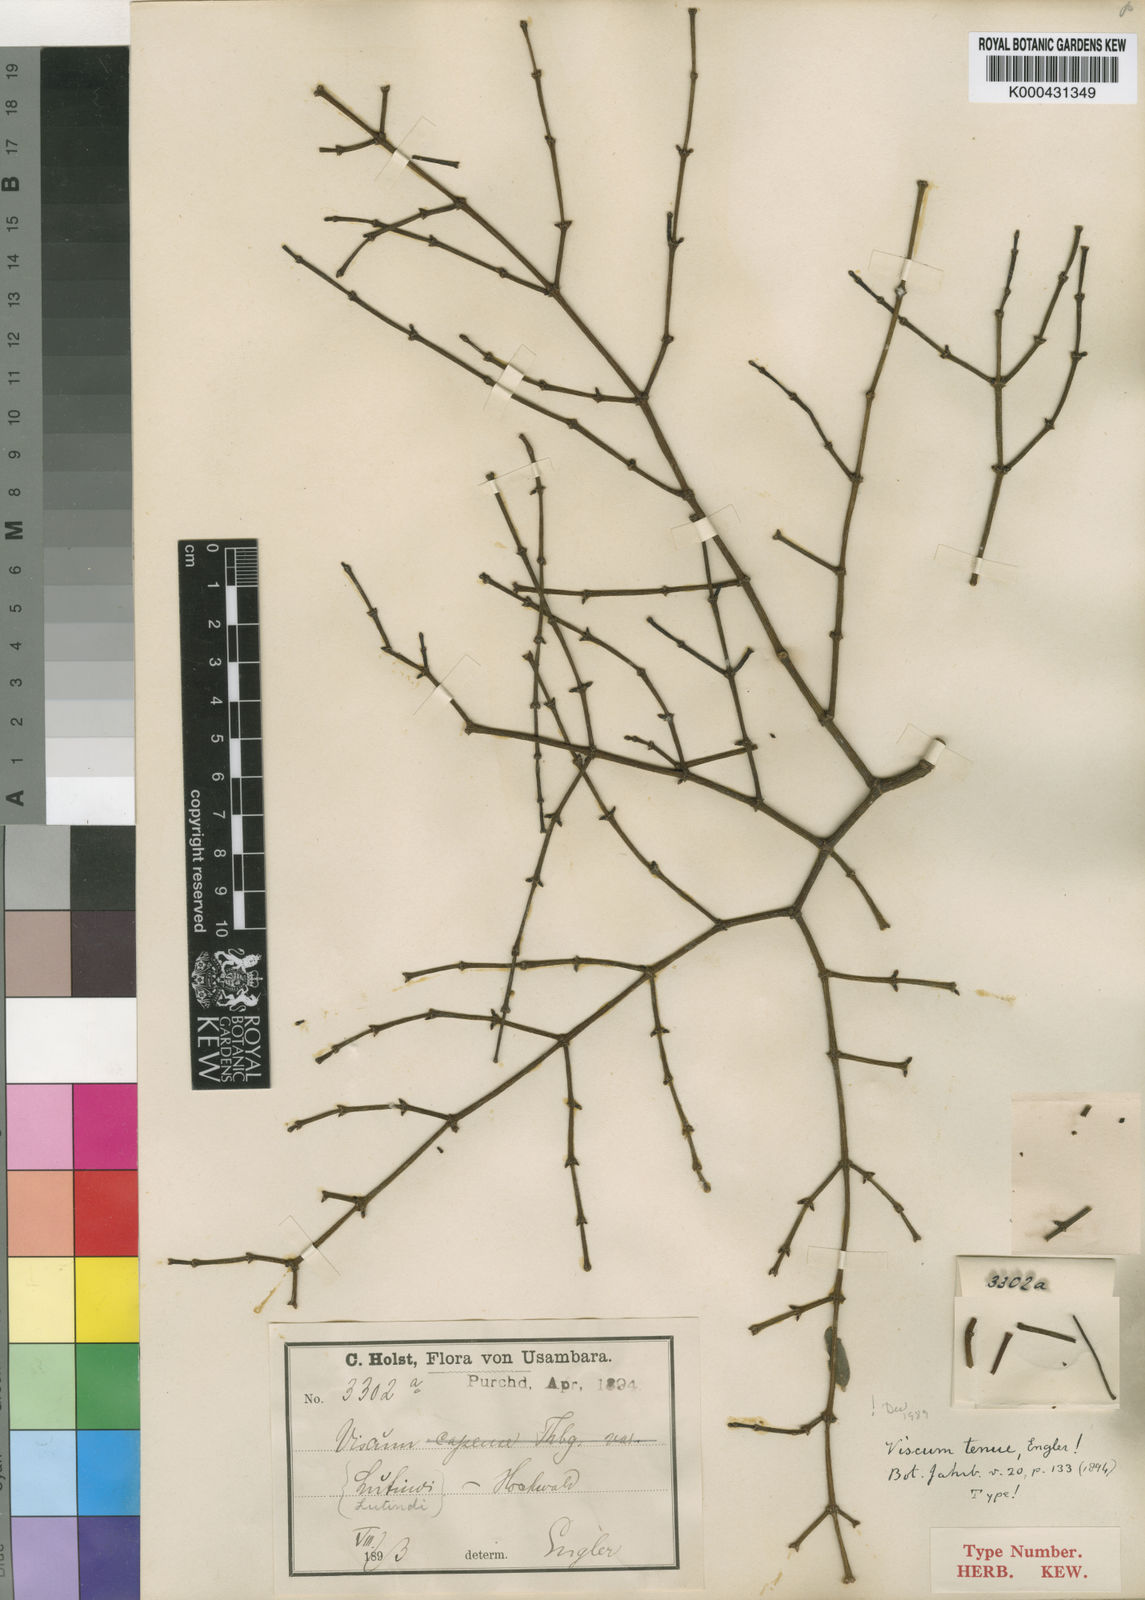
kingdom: Plantae
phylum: Tracheophyta
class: Magnoliopsida
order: Santalales
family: Viscaceae
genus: Viscum
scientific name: Viscum tenue
